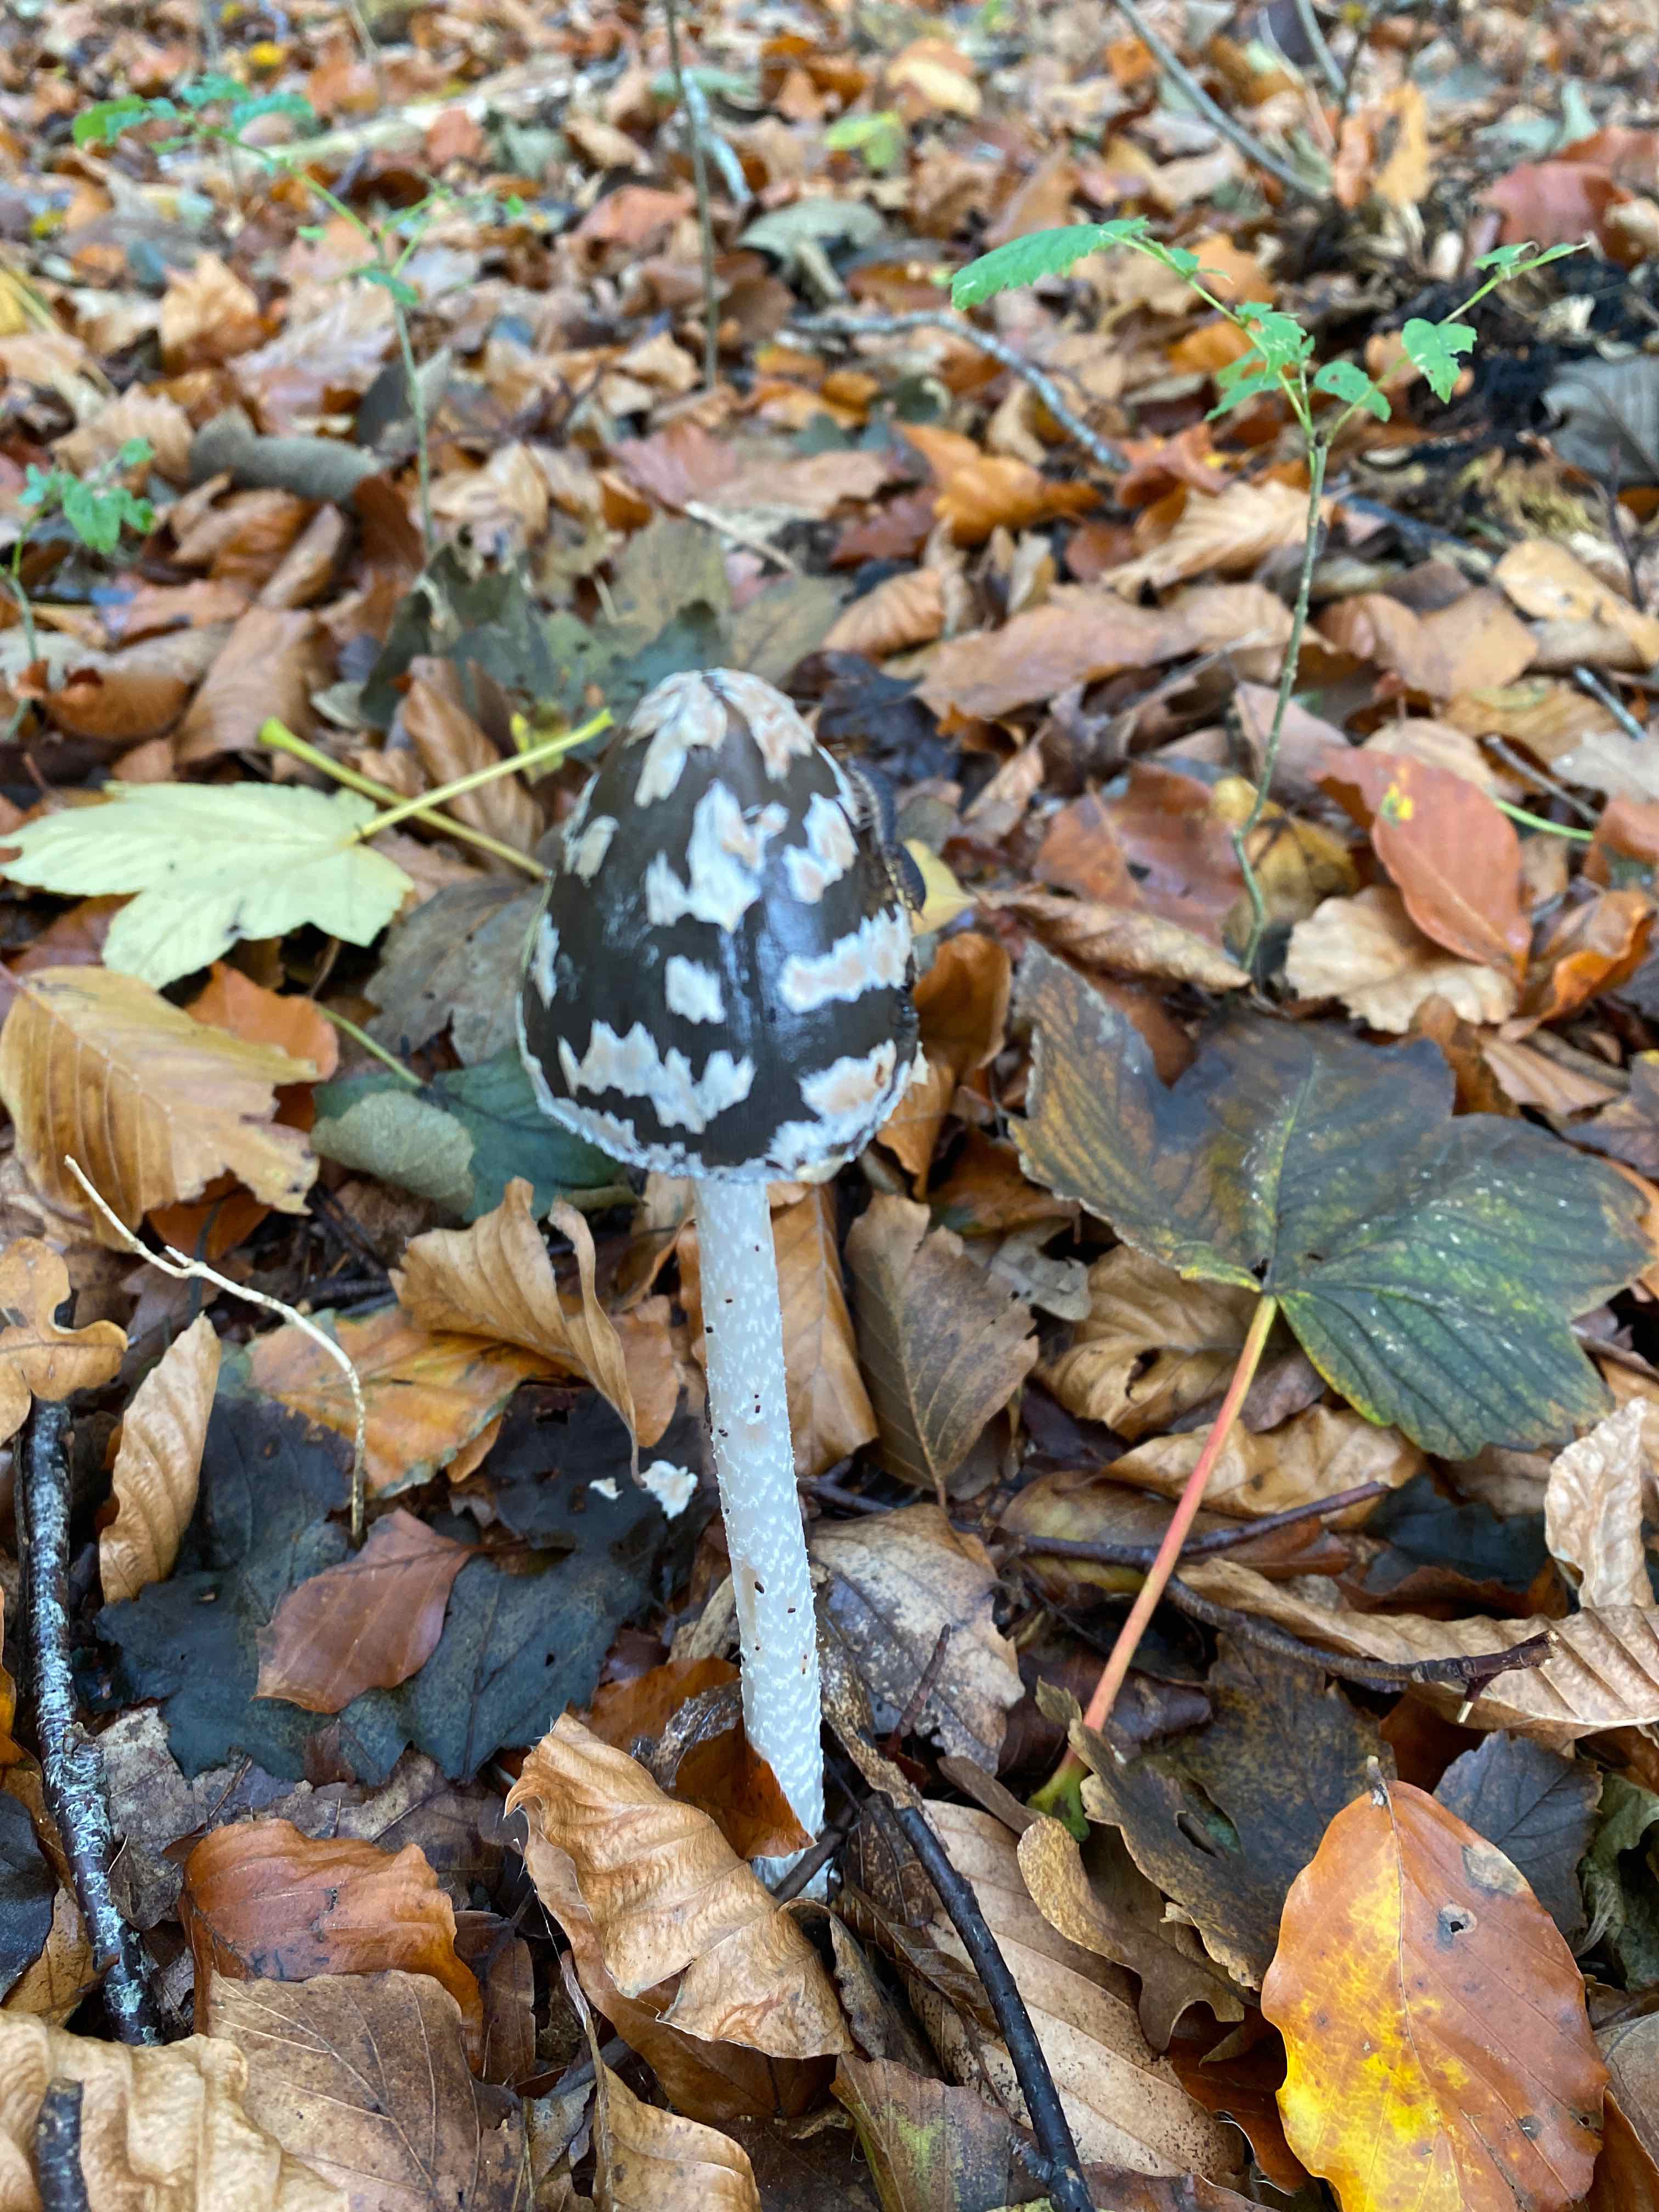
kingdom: Fungi
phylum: Basidiomycota
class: Agaricomycetes
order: Agaricales
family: Psathyrellaceae
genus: Coprinopsis
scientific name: Coprinopsis picacea
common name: skade-blækhat
